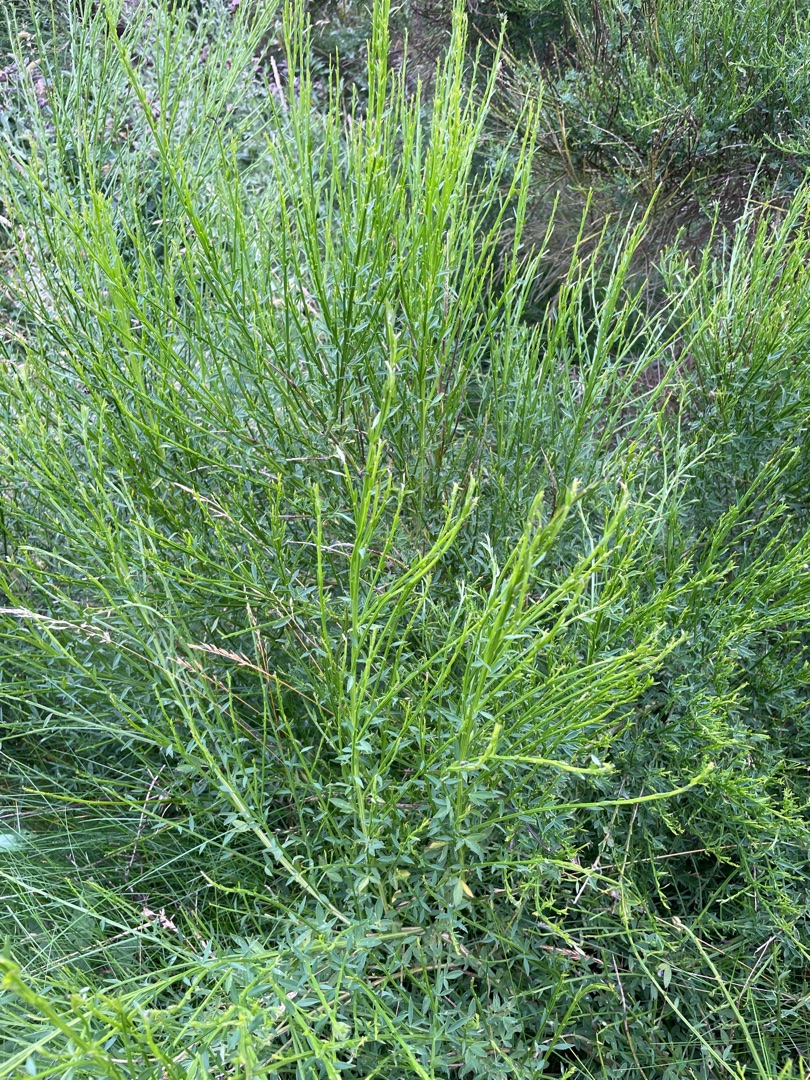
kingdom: Plantae
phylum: Tracheophyta
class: Magnoliopsida
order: Fabales
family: Fabaceae
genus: Cytisus
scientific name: Cytisus scoparius
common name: Almindelig gyvel
